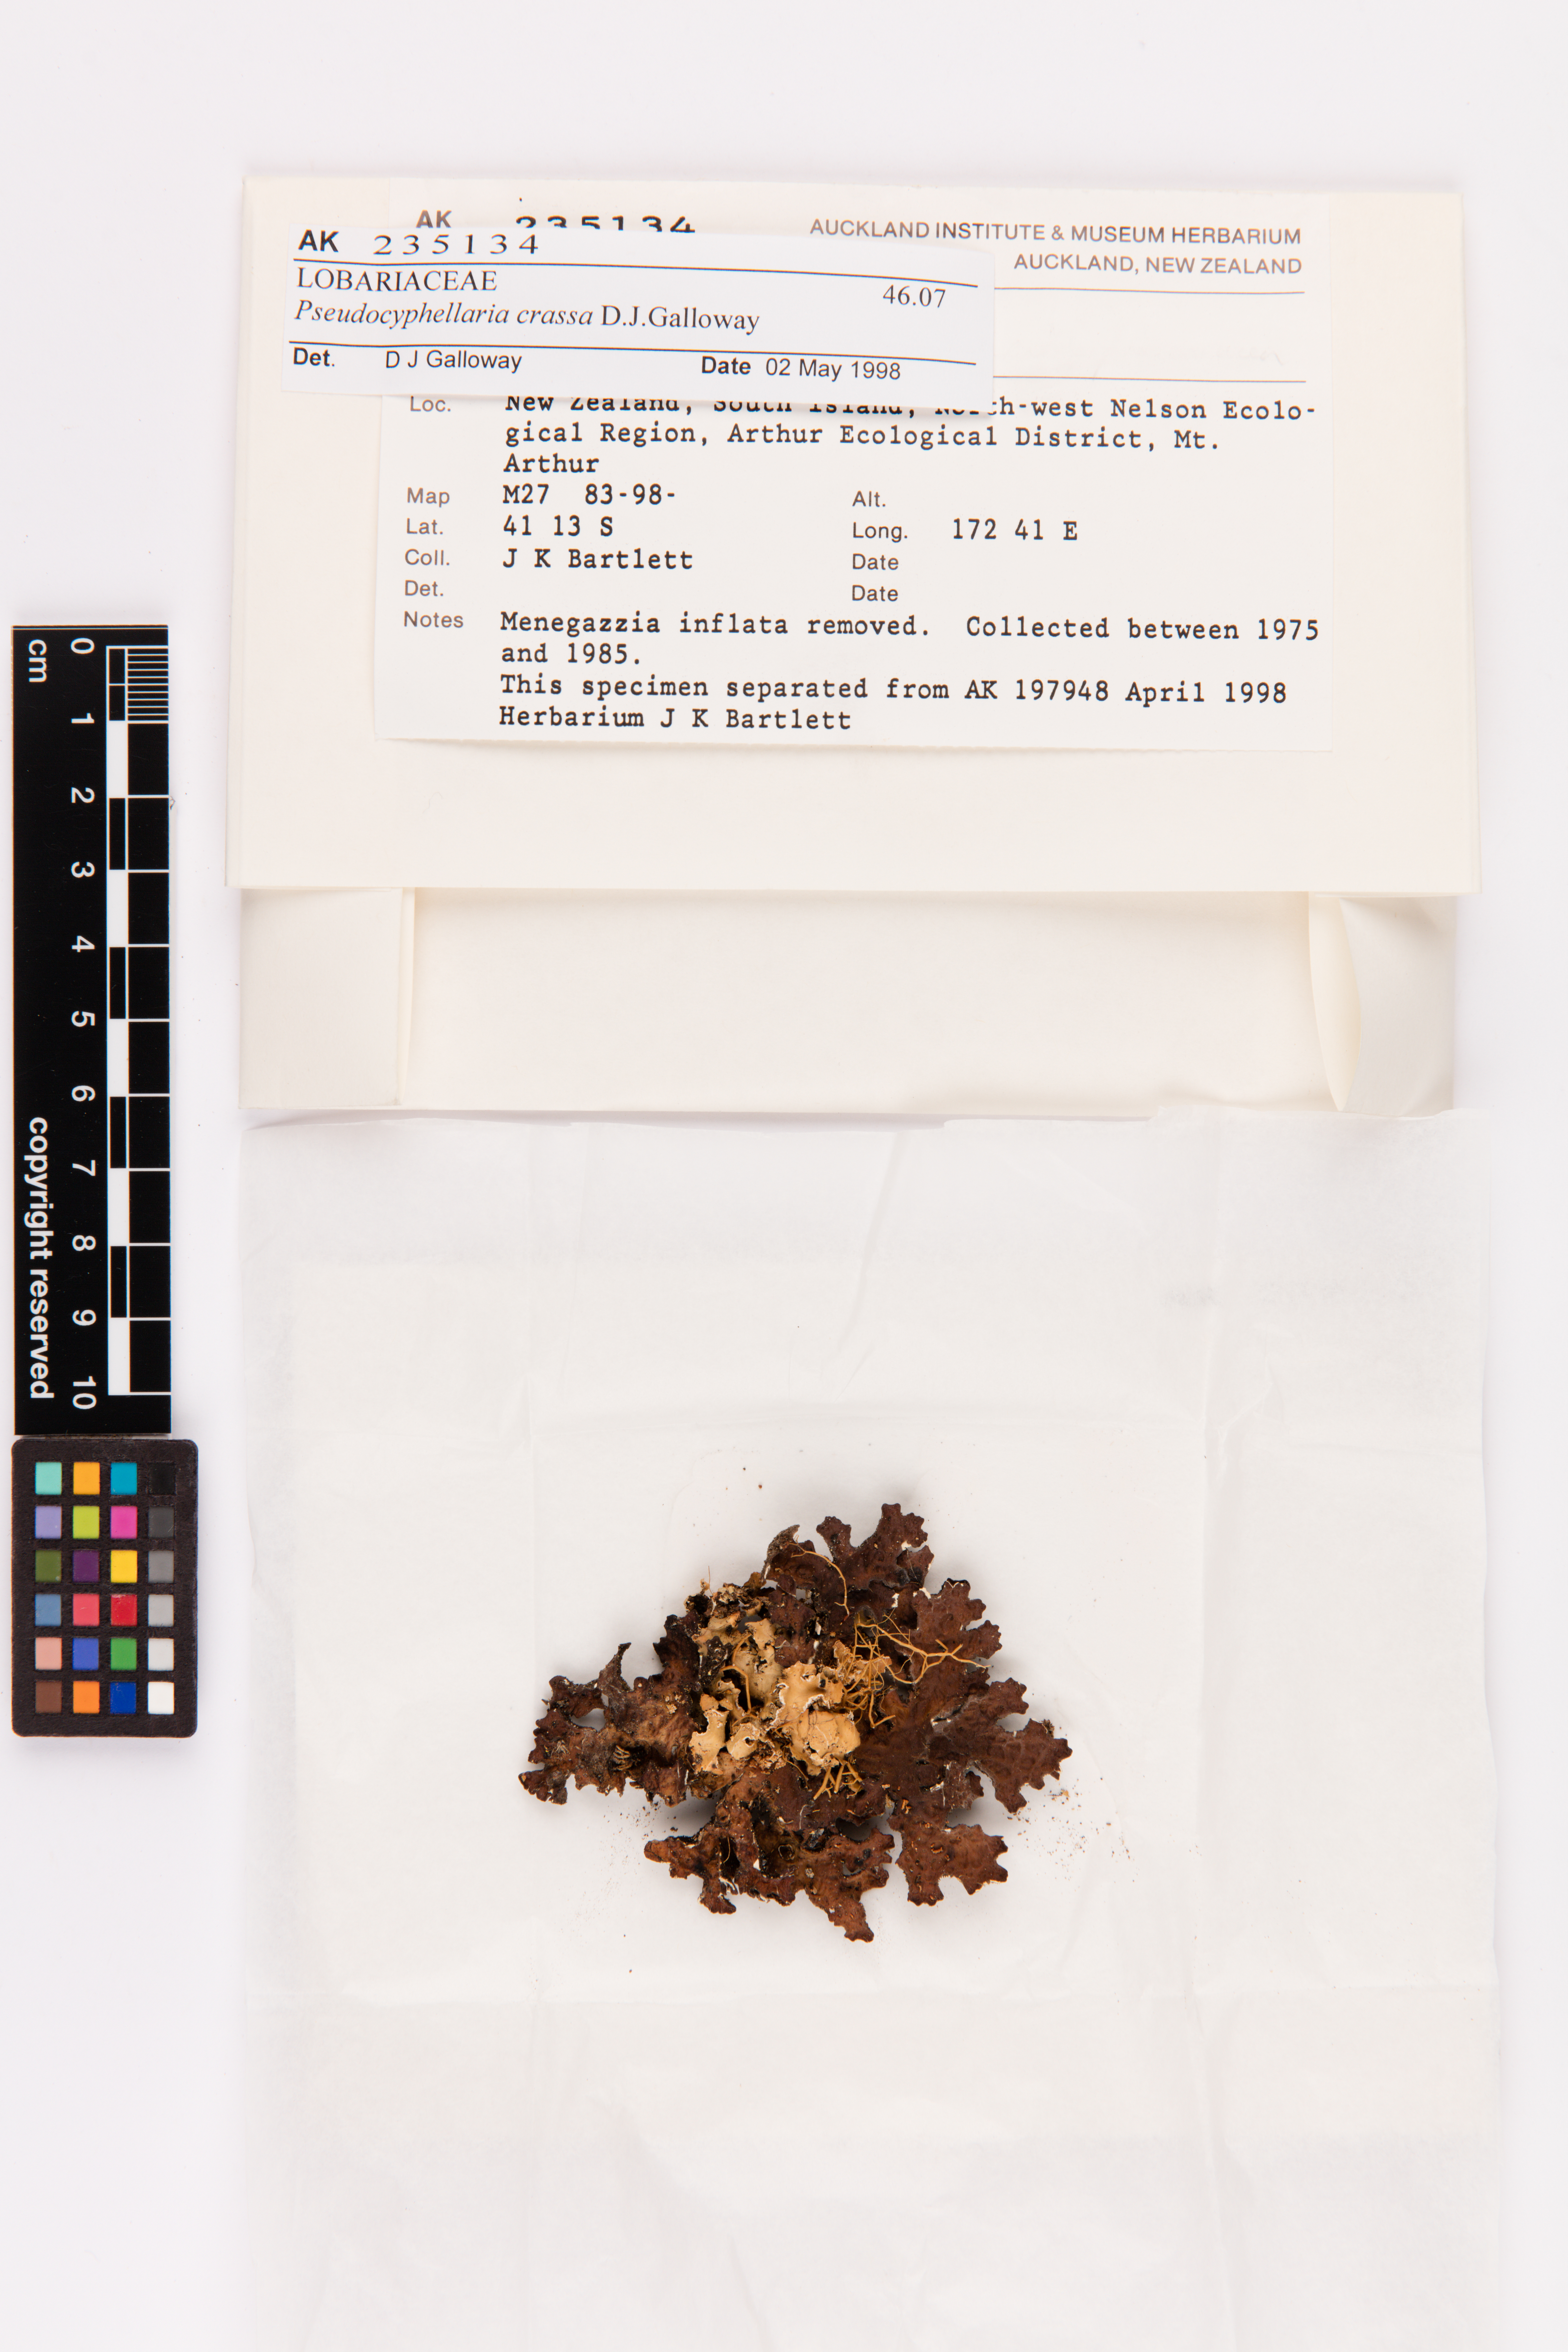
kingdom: Fungi
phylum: Ascomycota
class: Lecanoromycetes
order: Peltigerales
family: Lobariaceae
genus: Pseudocyphellaria
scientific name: Pseudocyphellaria crassa
